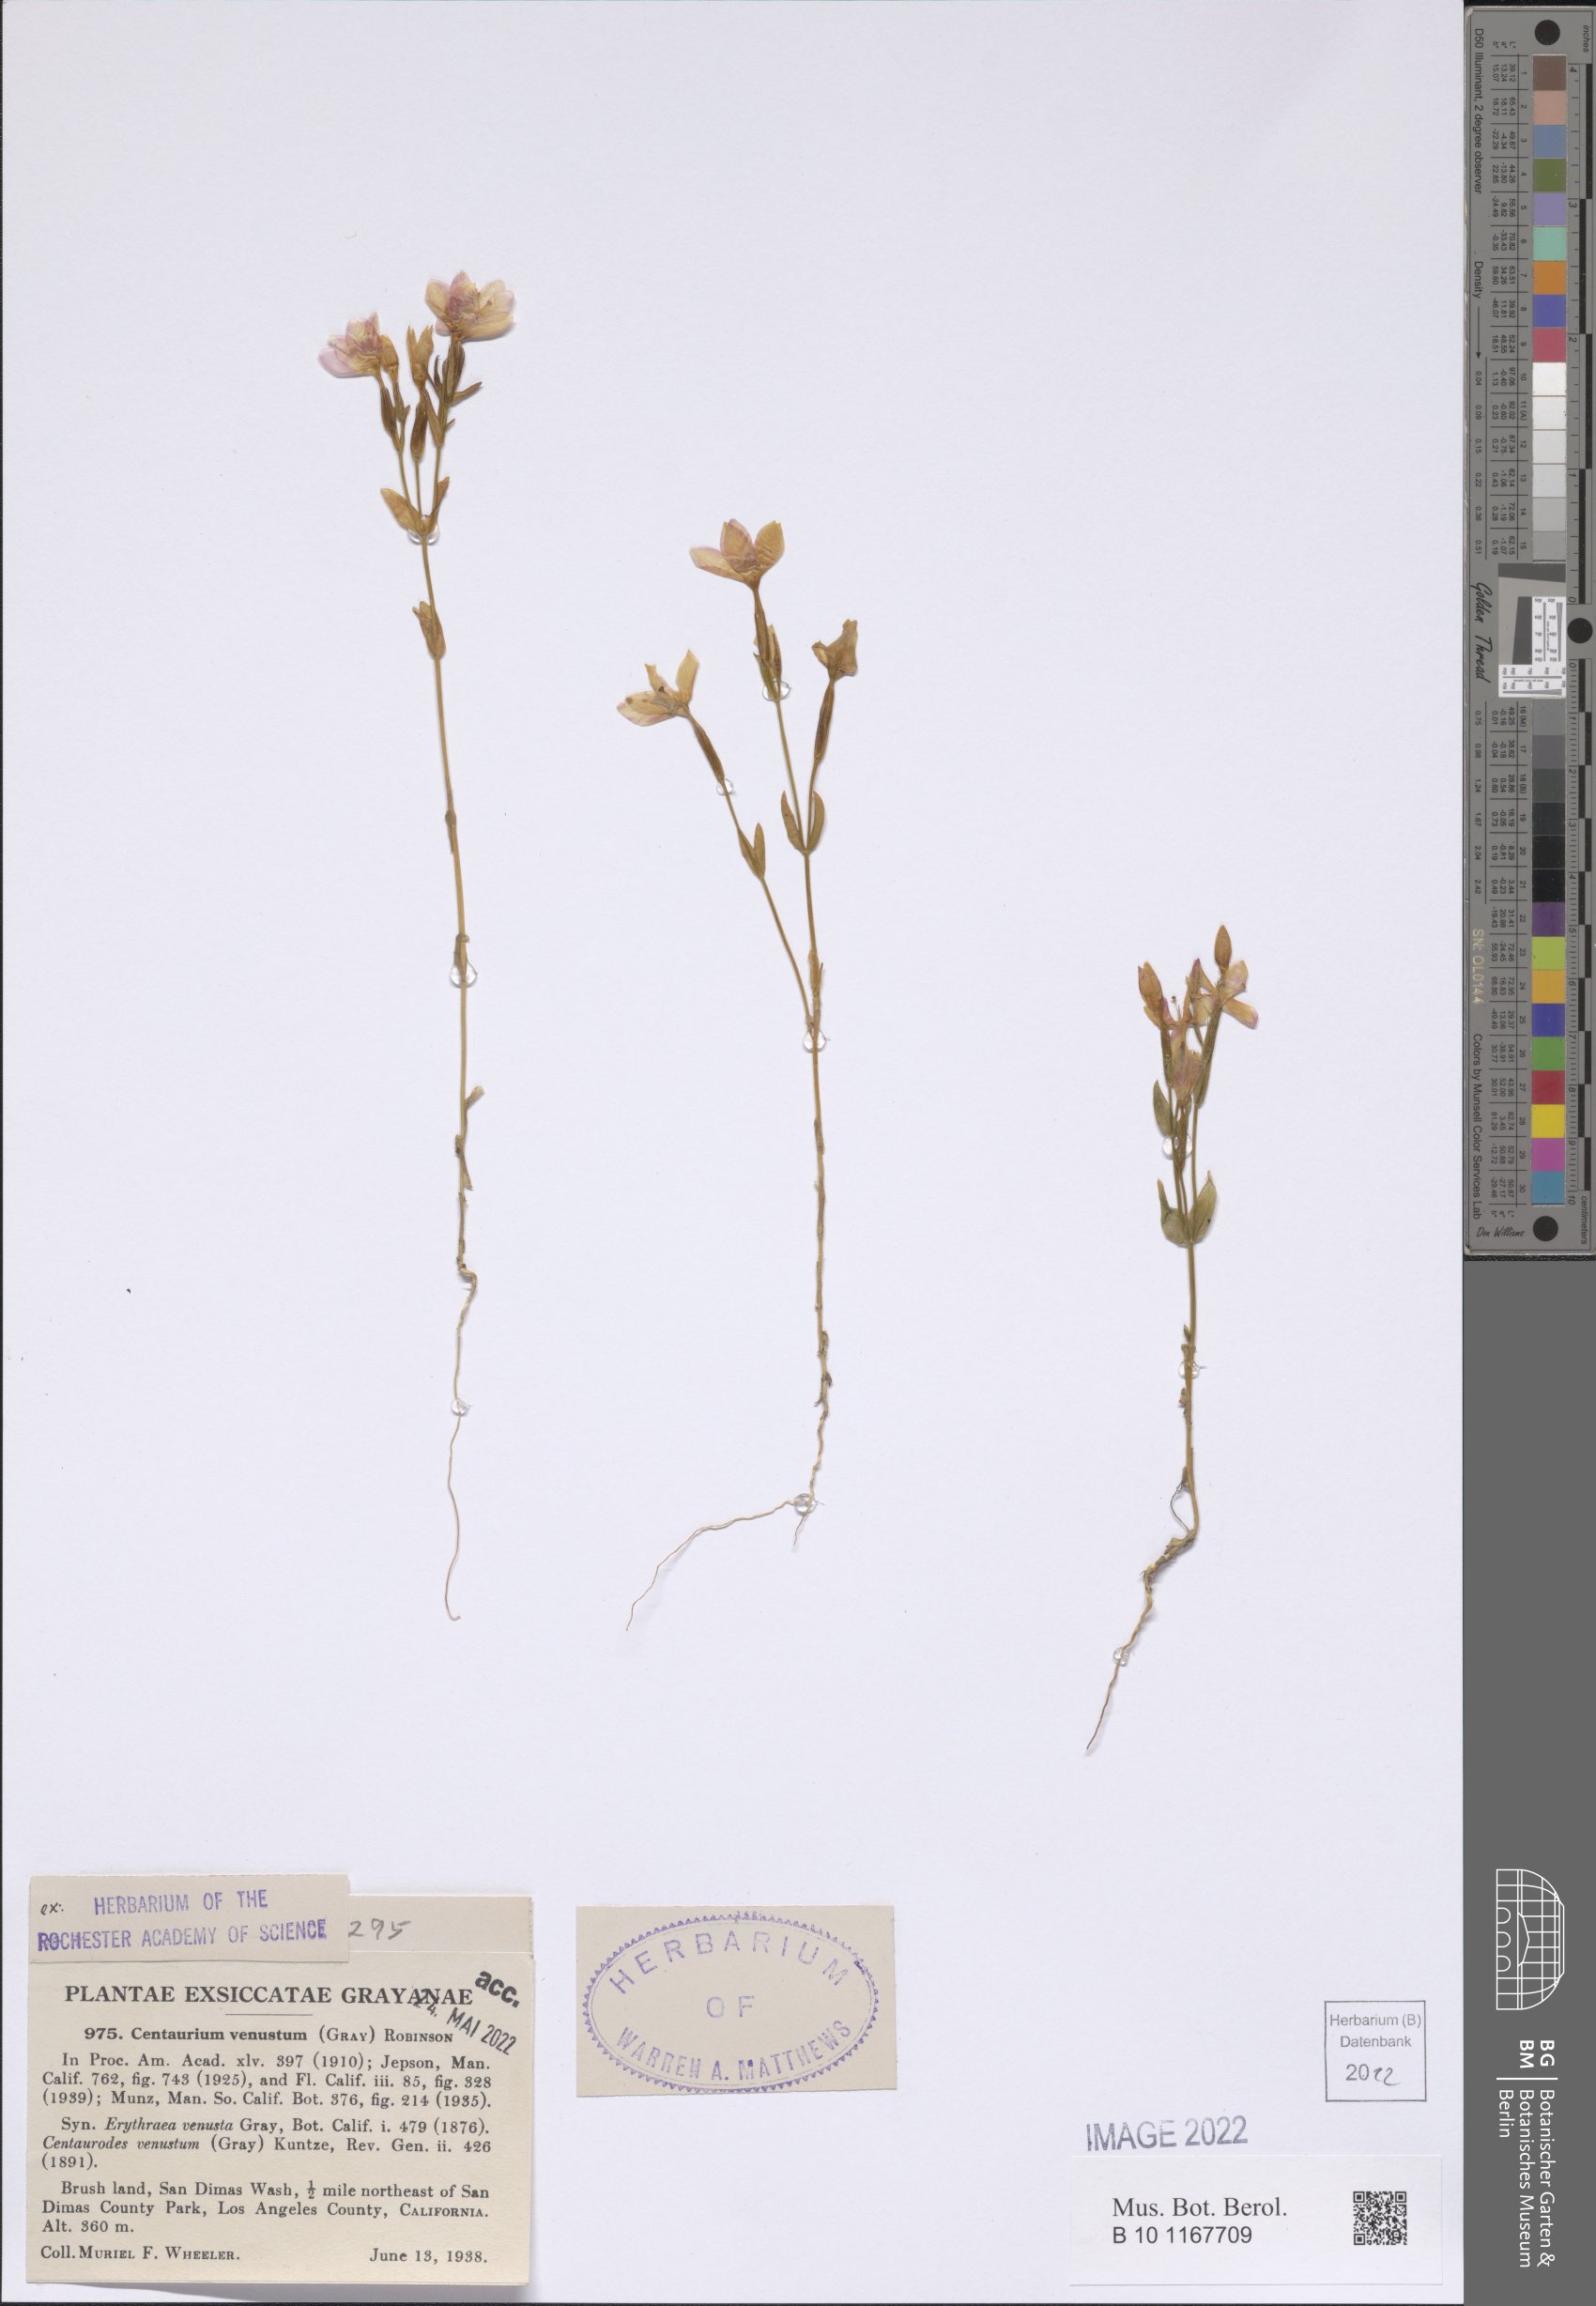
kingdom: Plantae
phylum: Tracheophyta
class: Magnoliopsida
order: Gentianales
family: Gentianaceae
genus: Zeltnera
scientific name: Zeltnera venusta
